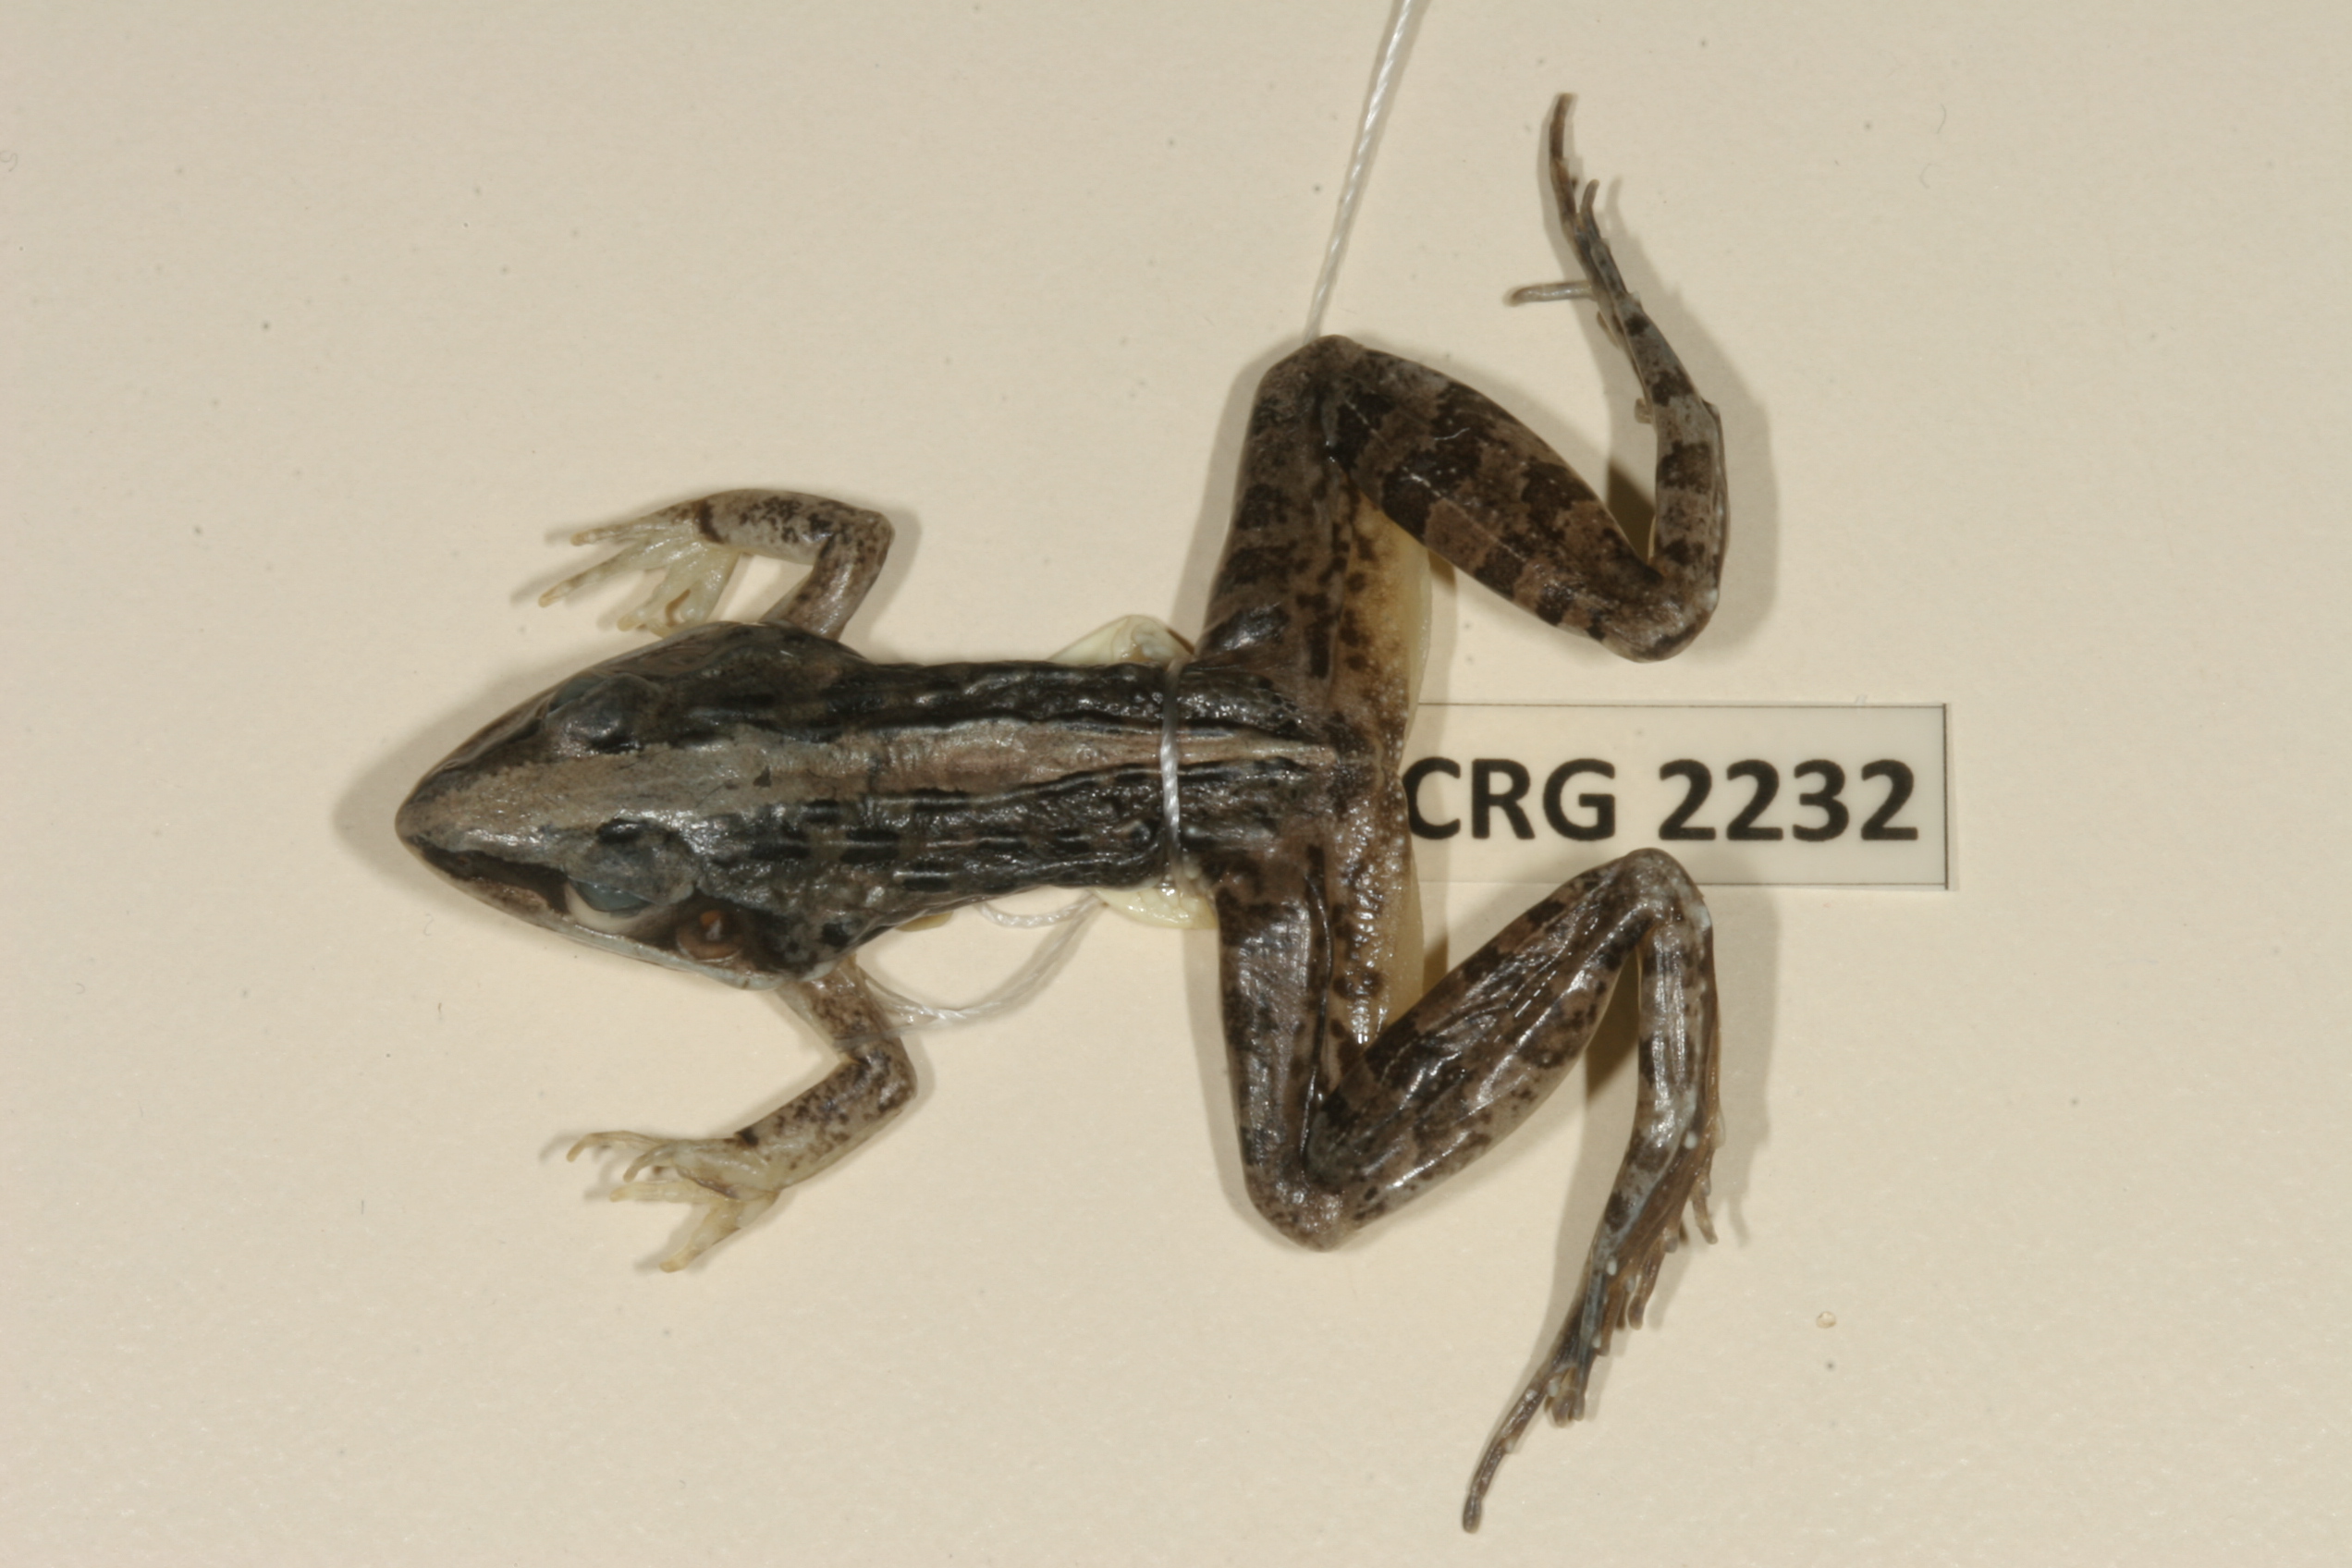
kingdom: Animalia
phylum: Chordata
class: Amphibia
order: Anura
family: Ptychadenidae
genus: Ptychadena
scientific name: Ptychadena mossambica
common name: Mozambique ridged frog
